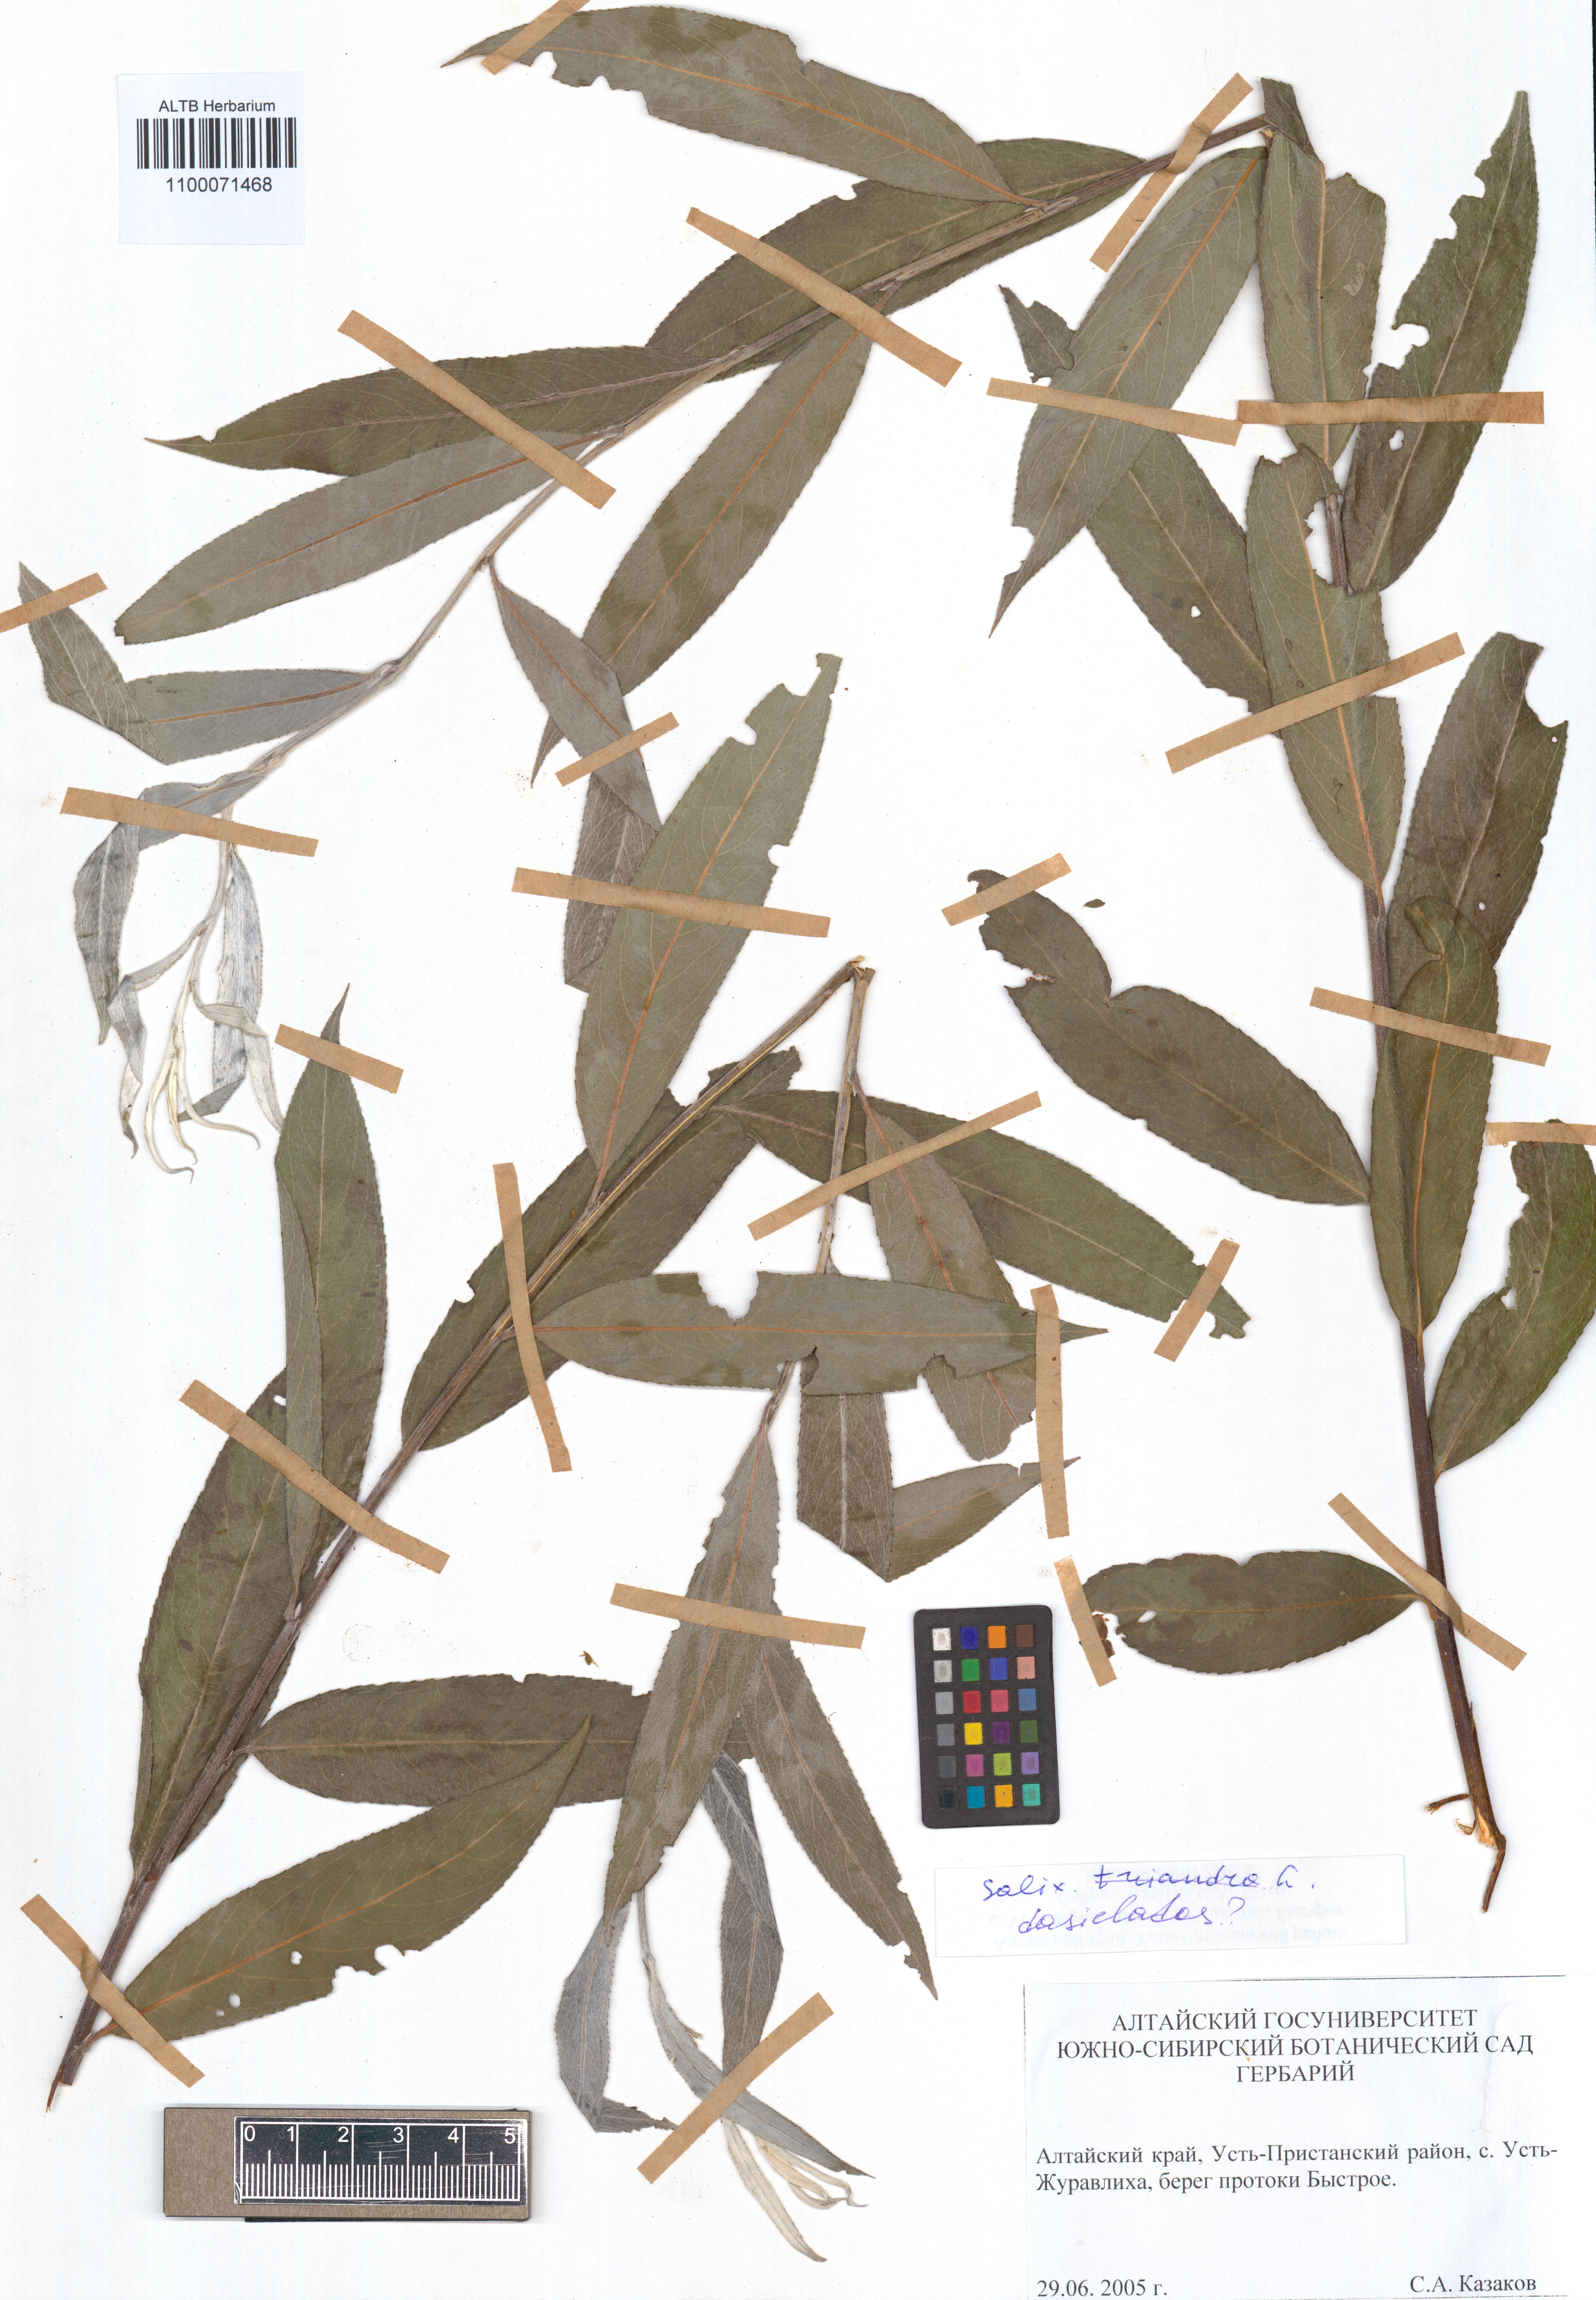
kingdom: Plantae
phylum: Tracheophyta
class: Magnoliopsida
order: Malpighiales
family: Salicaceae
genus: Salix
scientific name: Salix gmelinii
